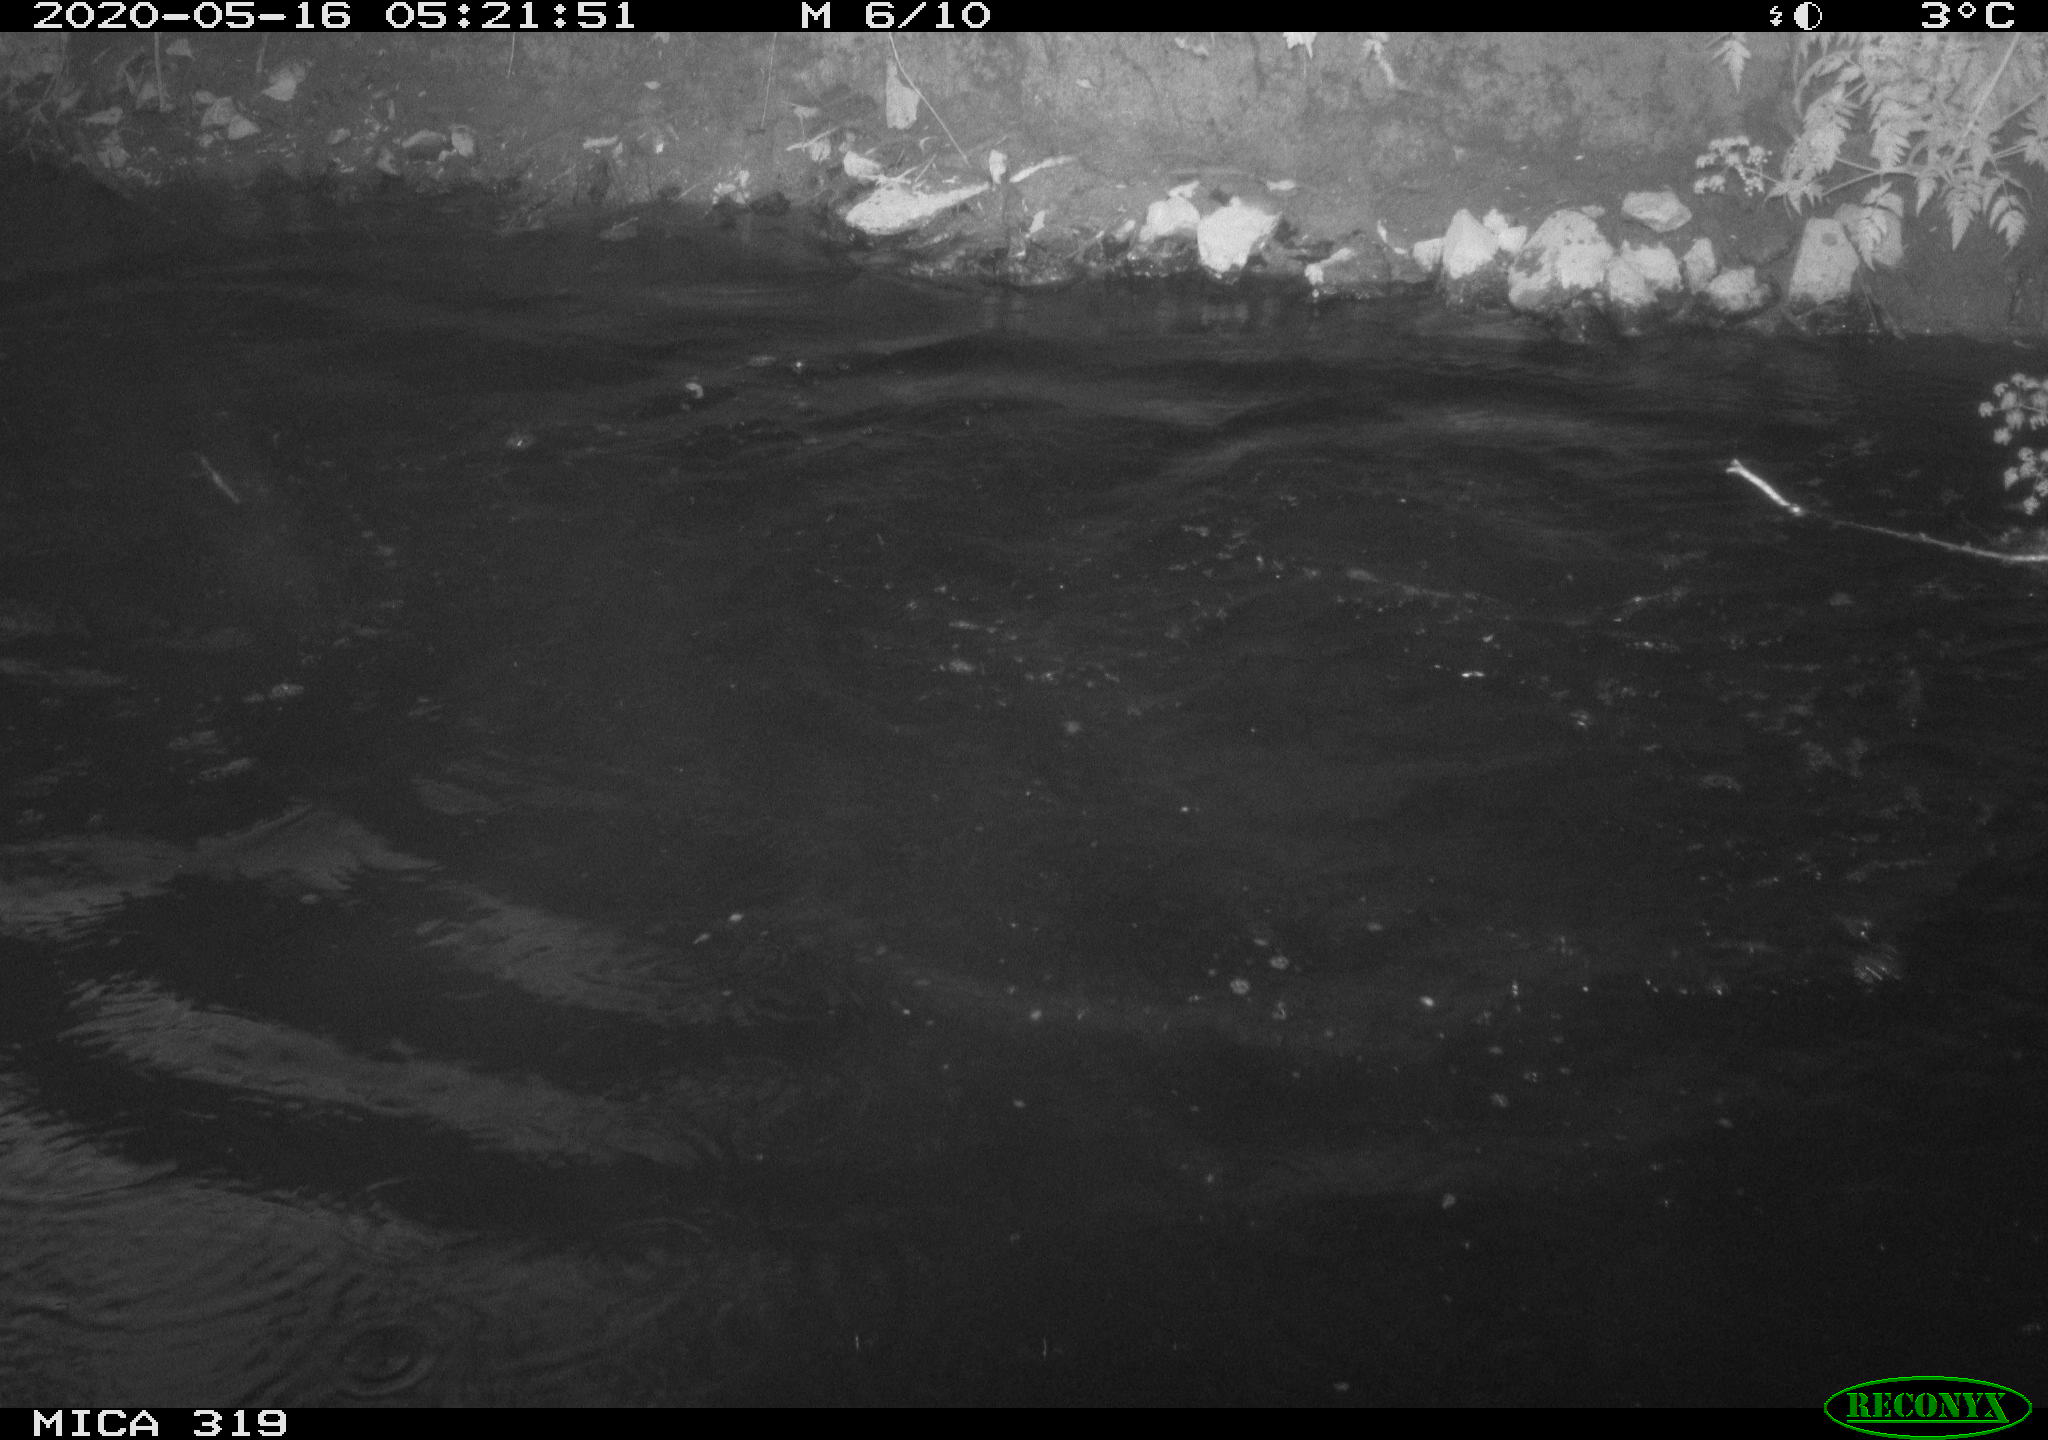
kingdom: Animalia
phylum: Chordata
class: Aves
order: Anseriformes
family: Anatidae
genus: Anas
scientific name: Anas platyrhynchos
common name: Mallard
